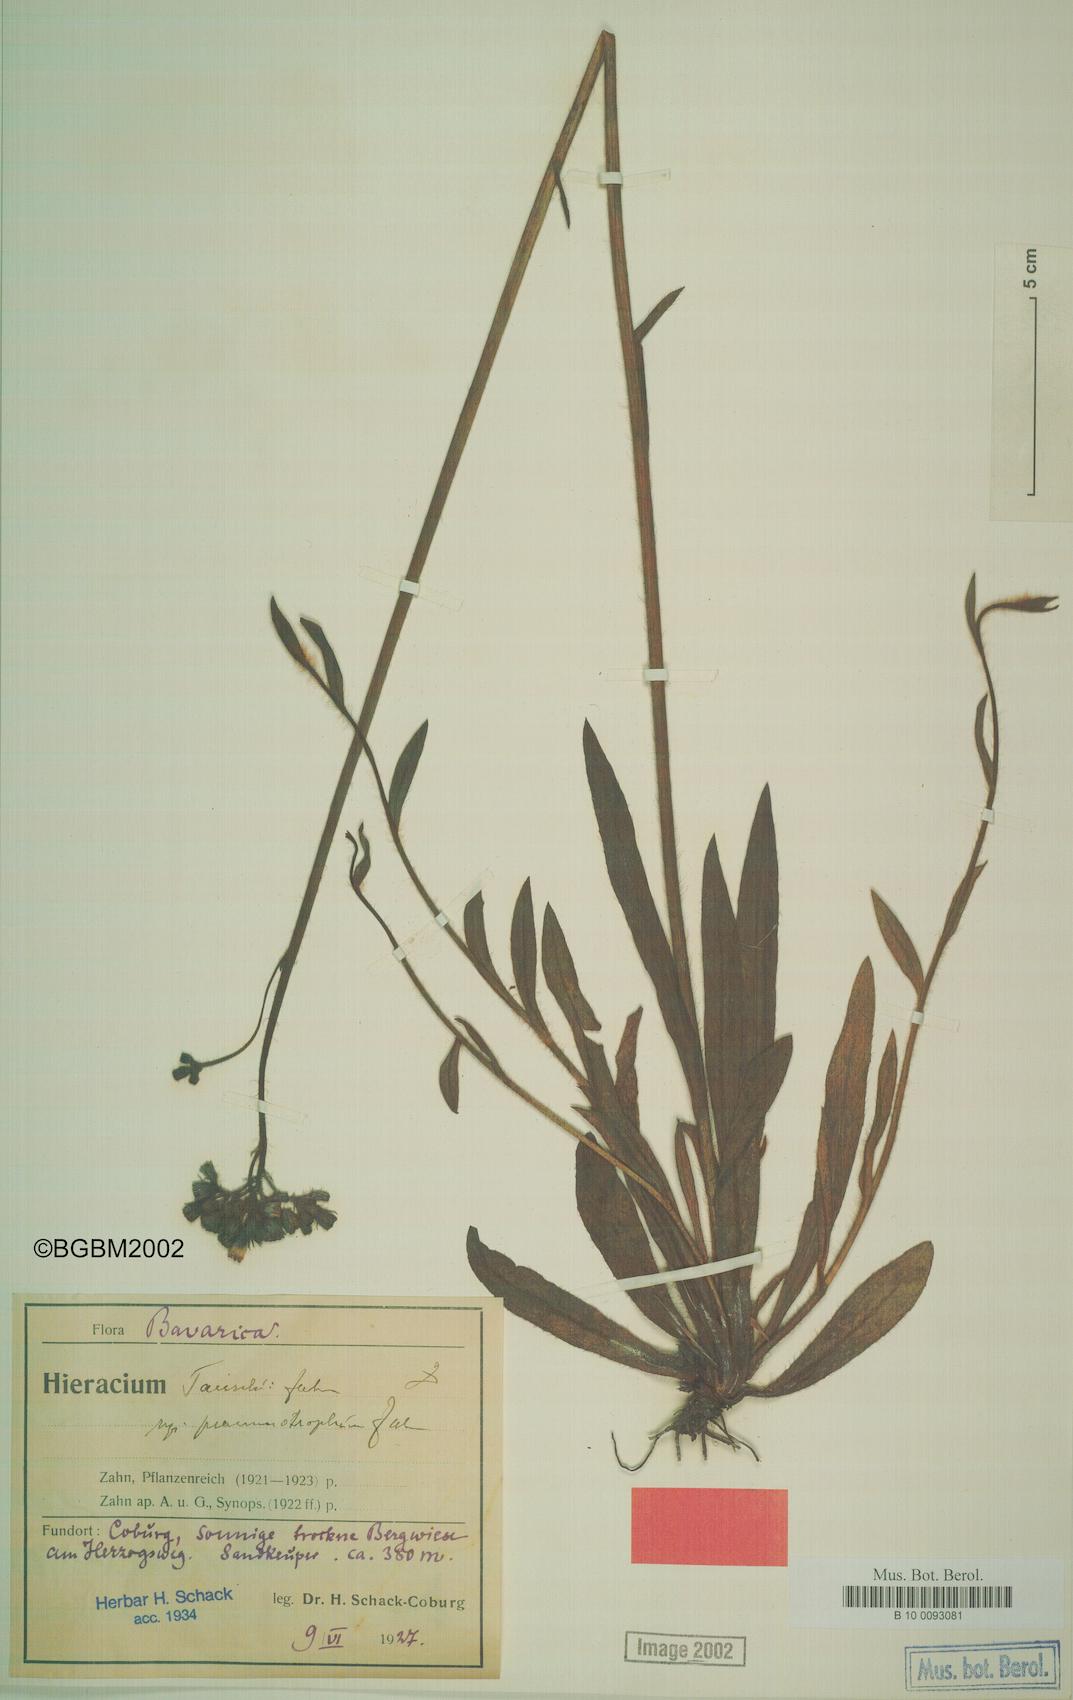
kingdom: Plantae
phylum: Tracheophyta
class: Magnoliopsida
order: Asterales
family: Asteraceae
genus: Pilosella
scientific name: Pilosella densiflora
